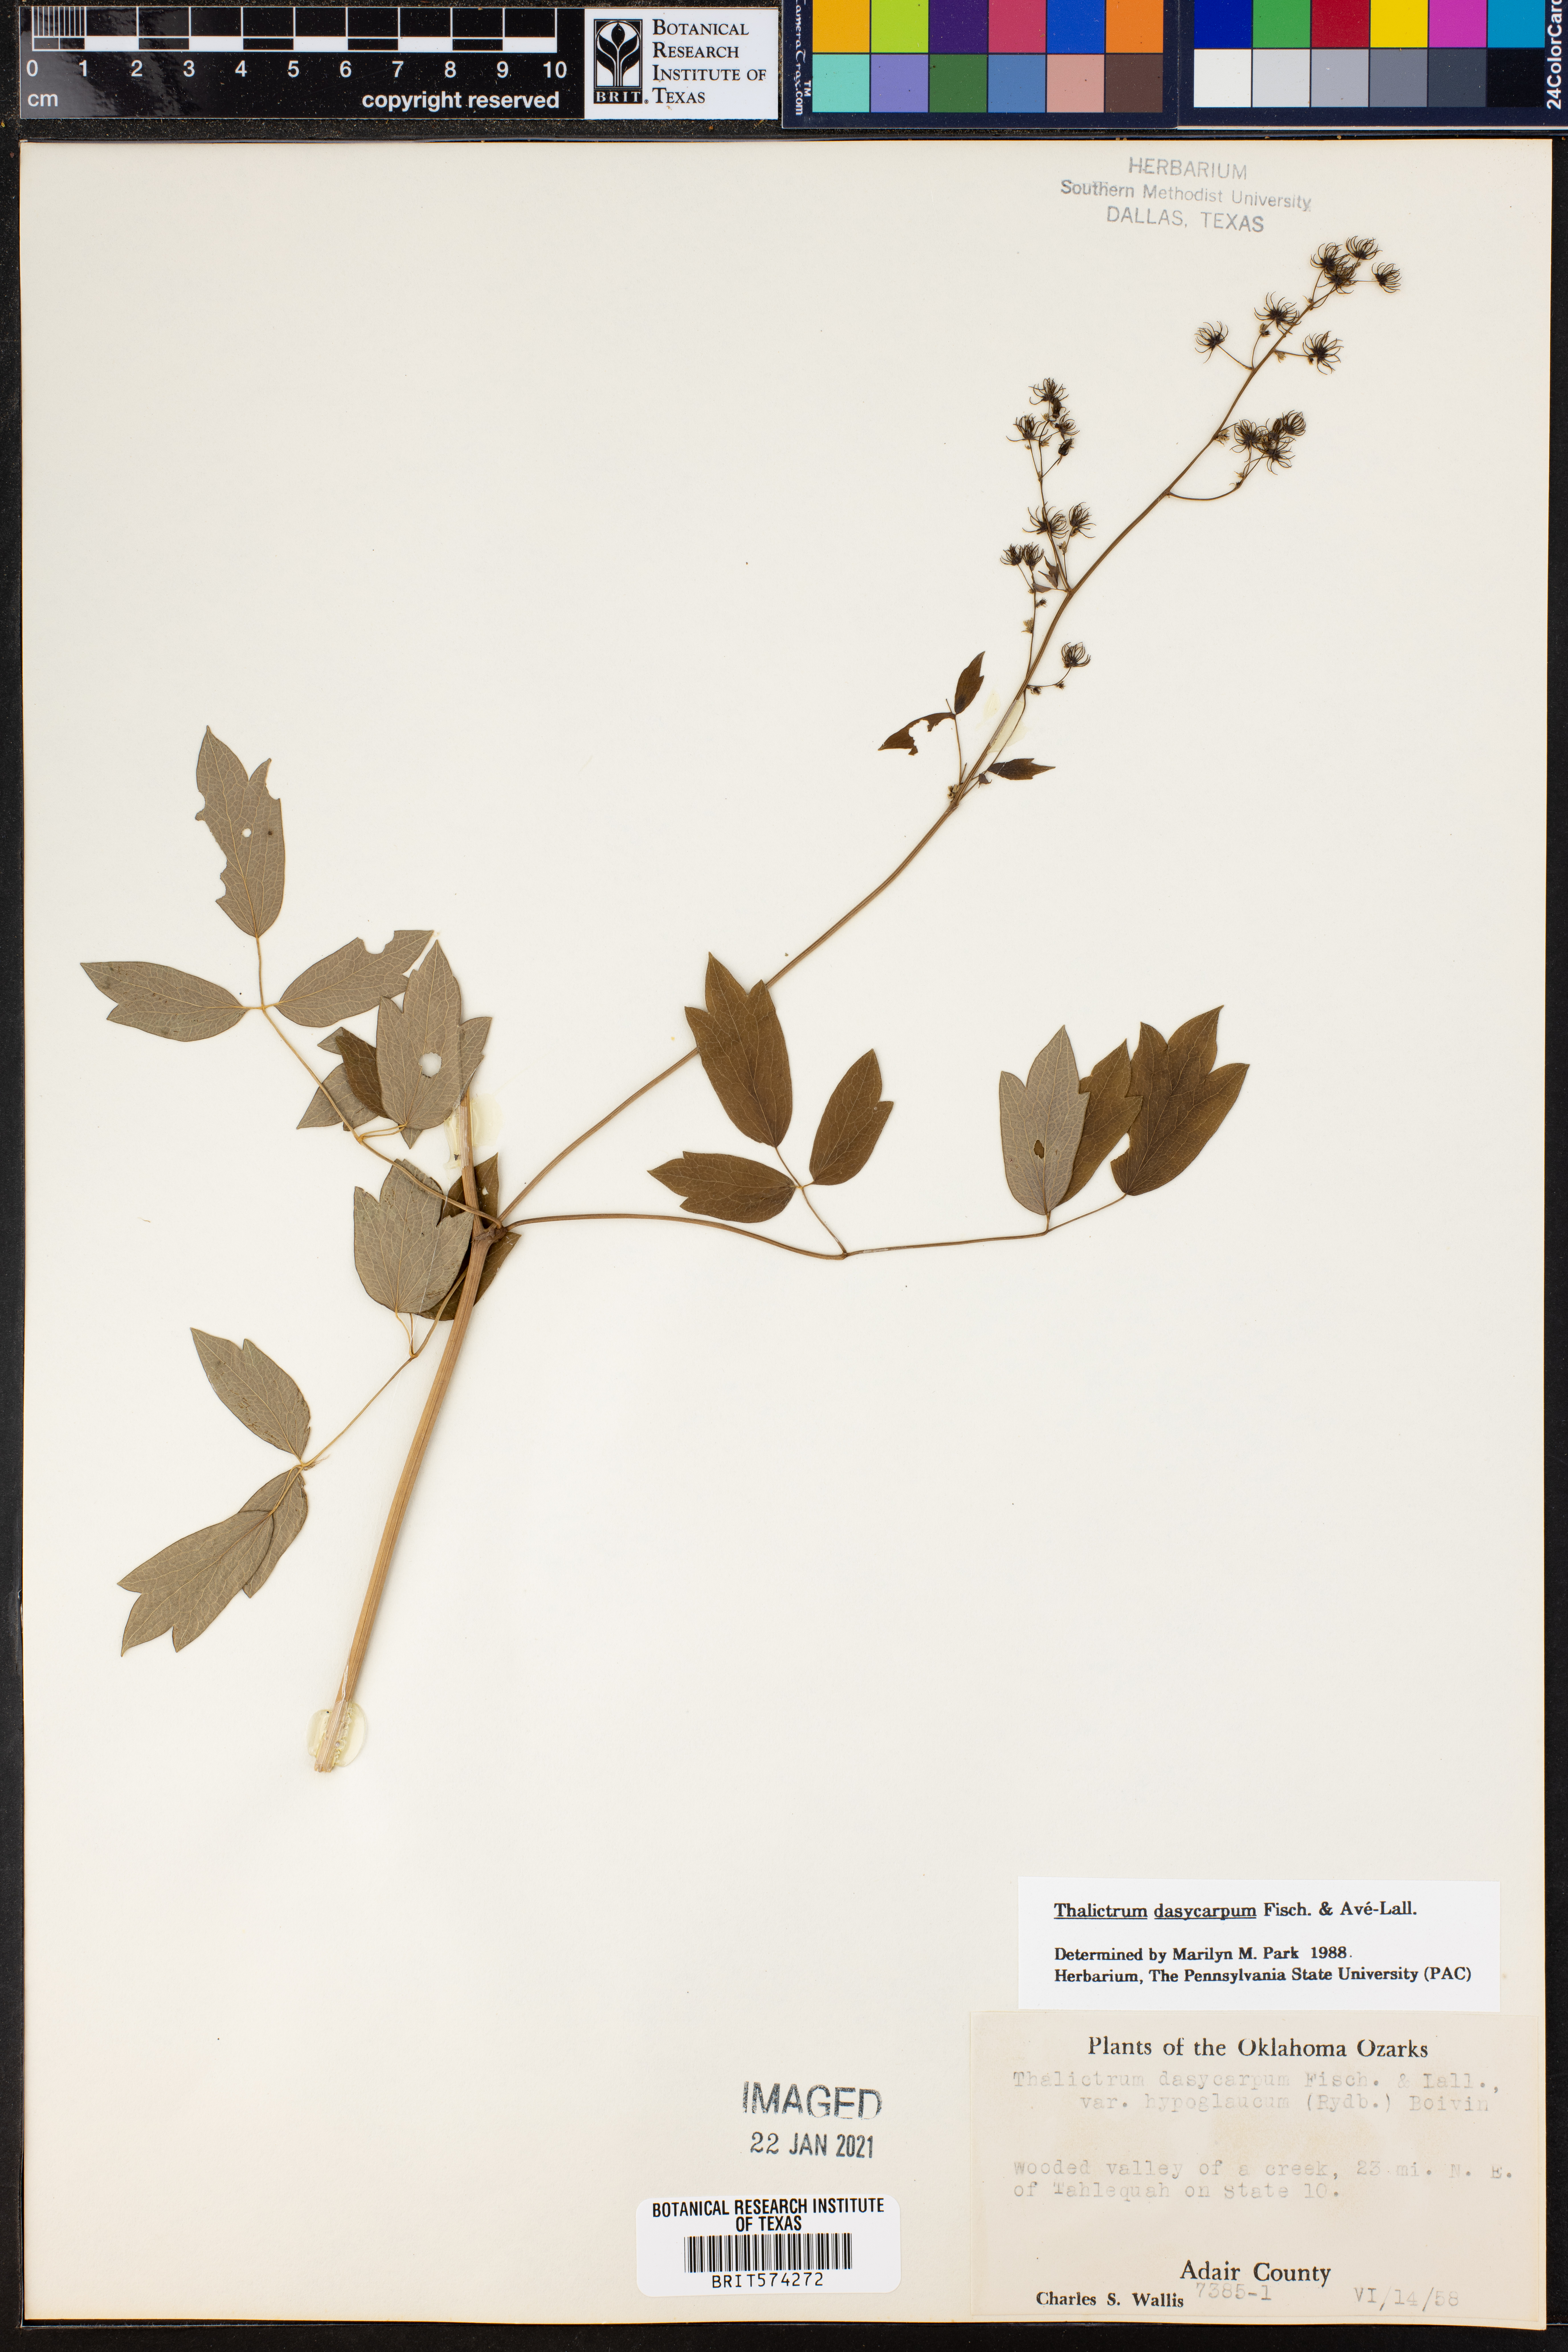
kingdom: Plantae
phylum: Tracheophyta
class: Magnoliopsida
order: Ranunculales
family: Ranunculaceae
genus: Thalictrum
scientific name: Thalictrum dasycarpum
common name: Purple meadow-rue
